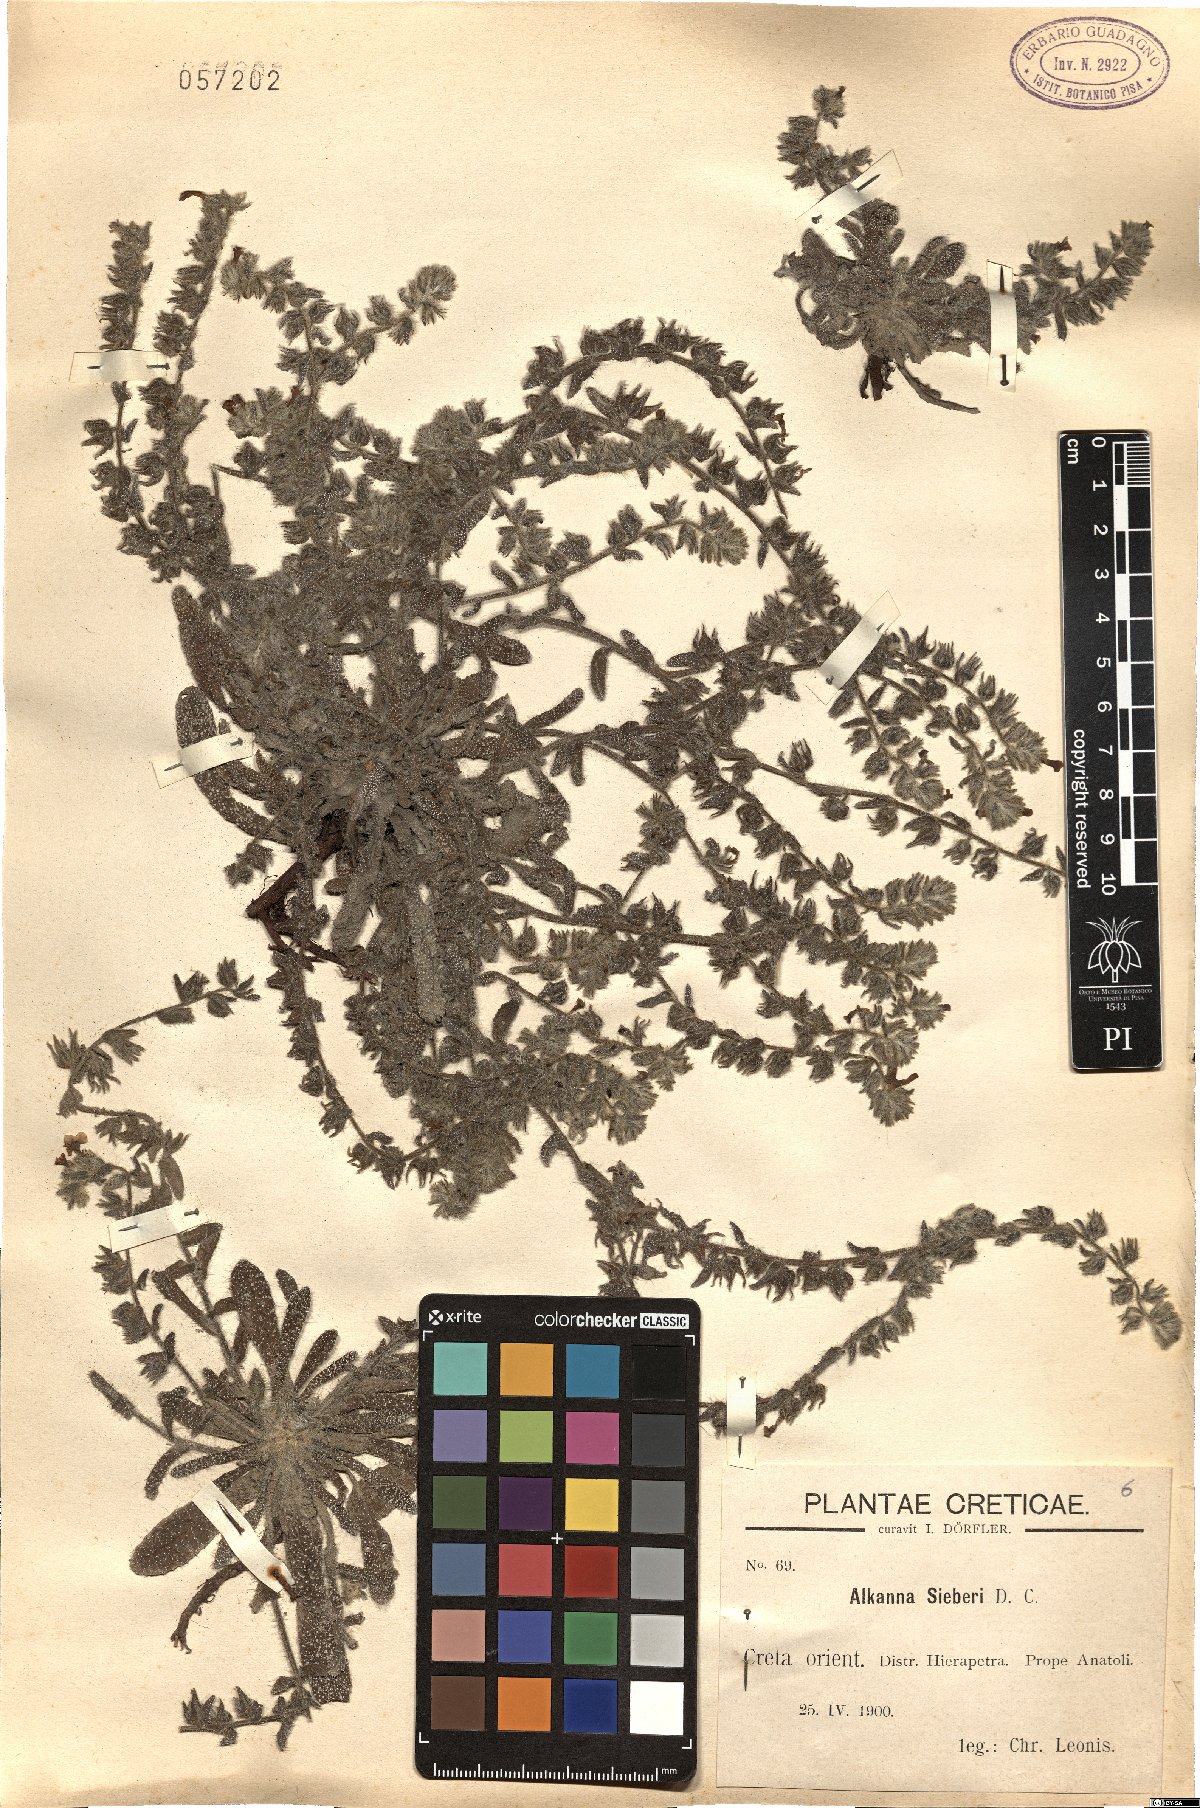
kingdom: Plantae
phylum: Tracheophyta
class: Magnoliopsida
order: Boraginales
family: Boraginaceae
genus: Alkanna
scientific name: Alkanna sieberi
